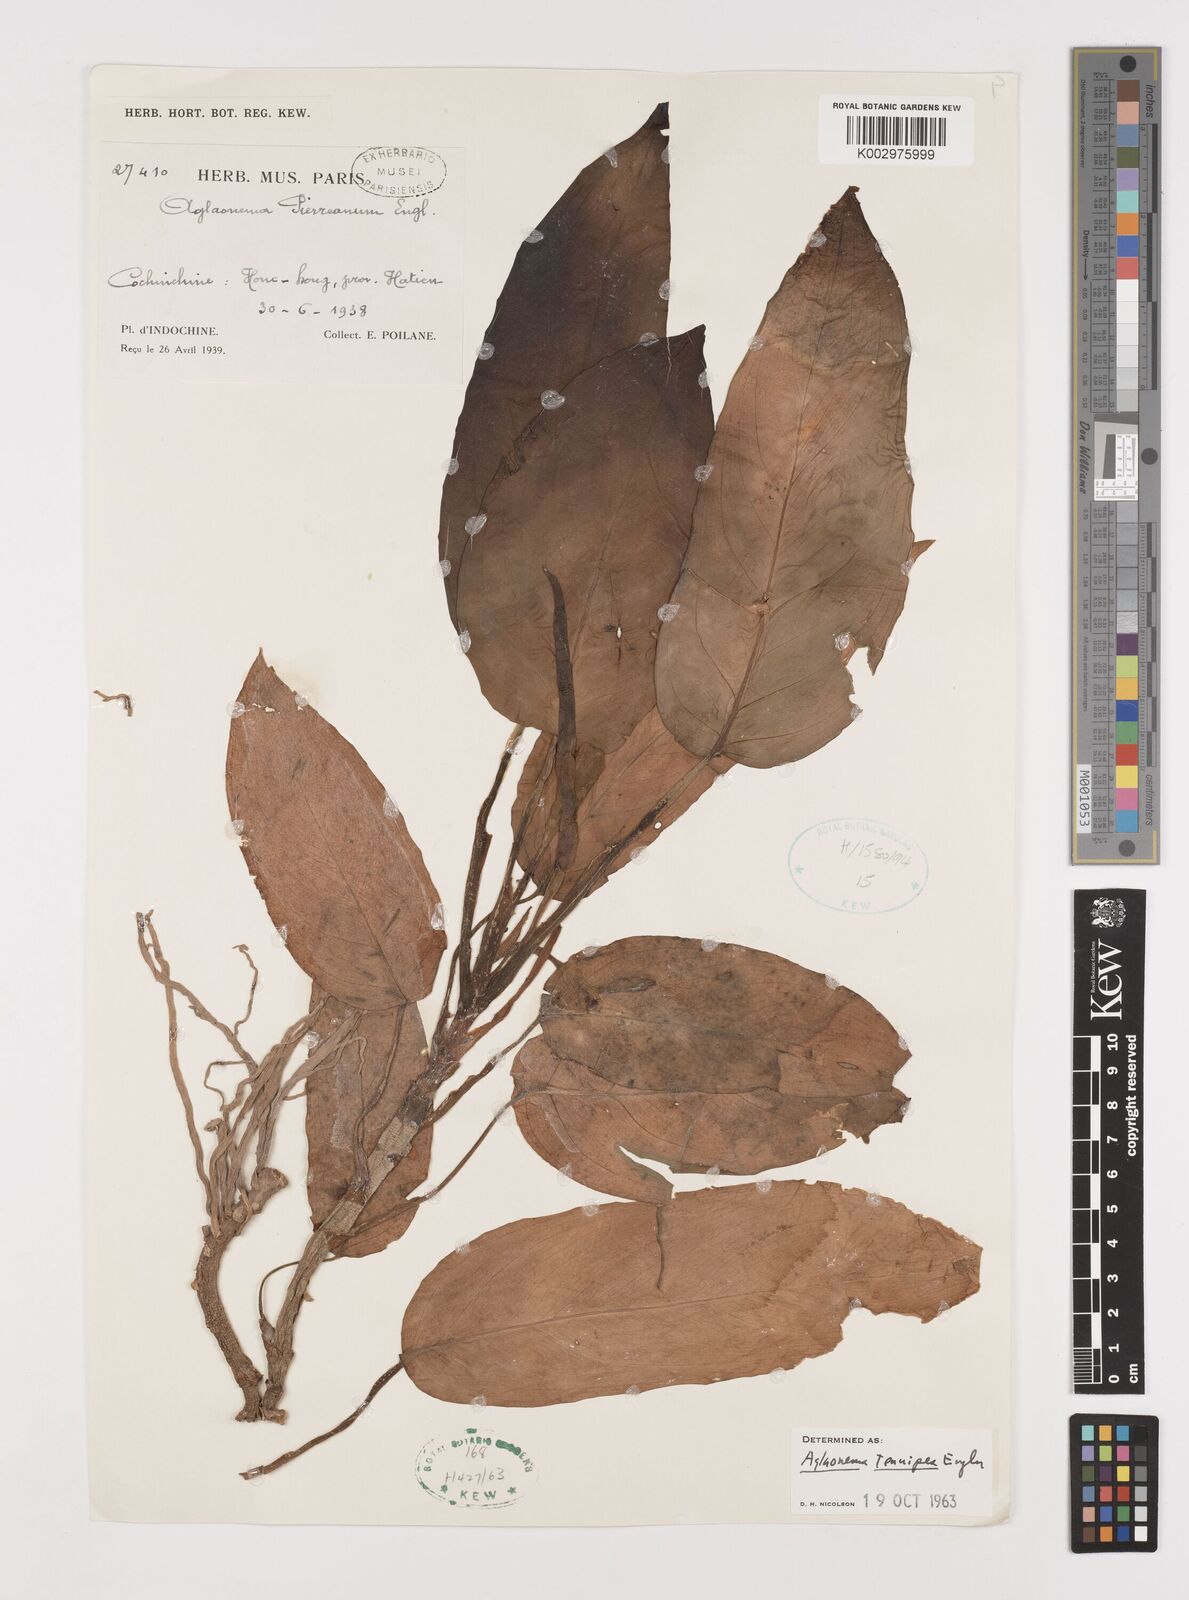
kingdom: Plantae
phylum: Tracheophyta
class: Liliopsida
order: Alismatales
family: Araceae
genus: Aglaonema
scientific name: Aglaonema simplex
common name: Malayan-sword
